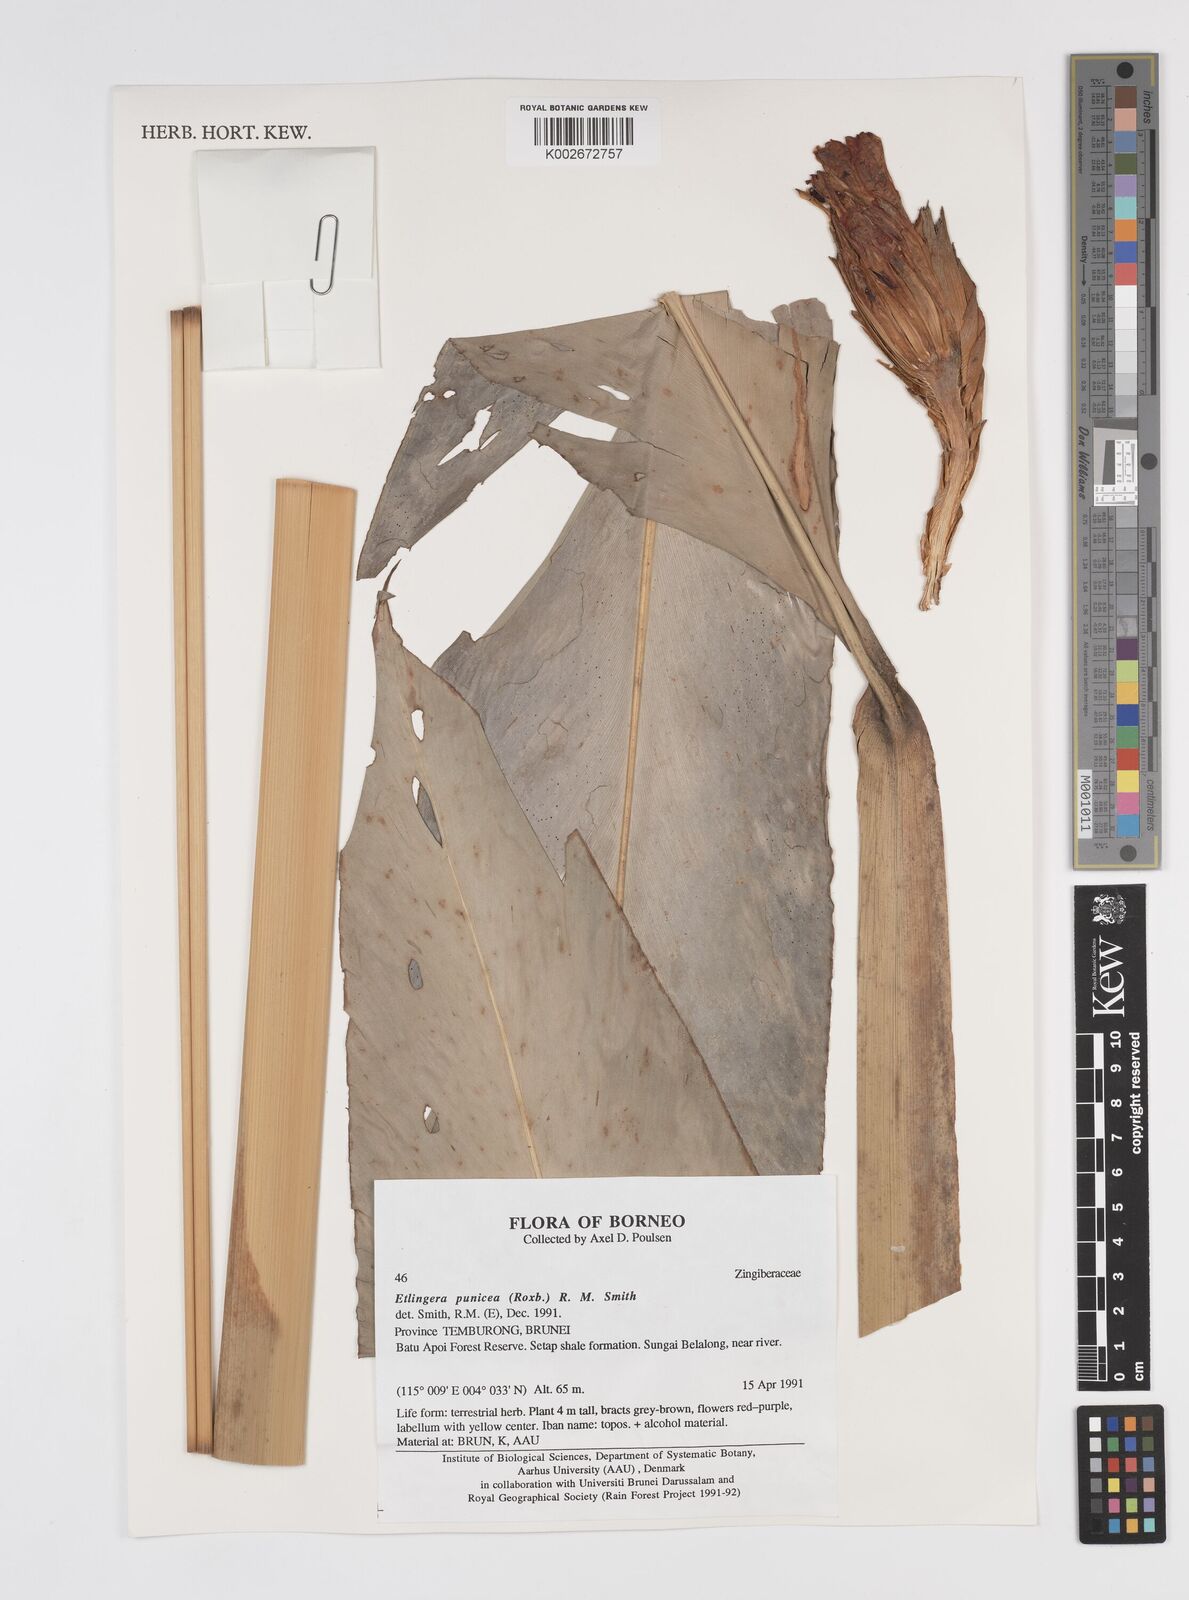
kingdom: Plantae
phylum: Tracheophyta
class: Liliopsida
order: Zingiberales
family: Zingiberaceae
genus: Etlingera
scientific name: Etlingera punicea
